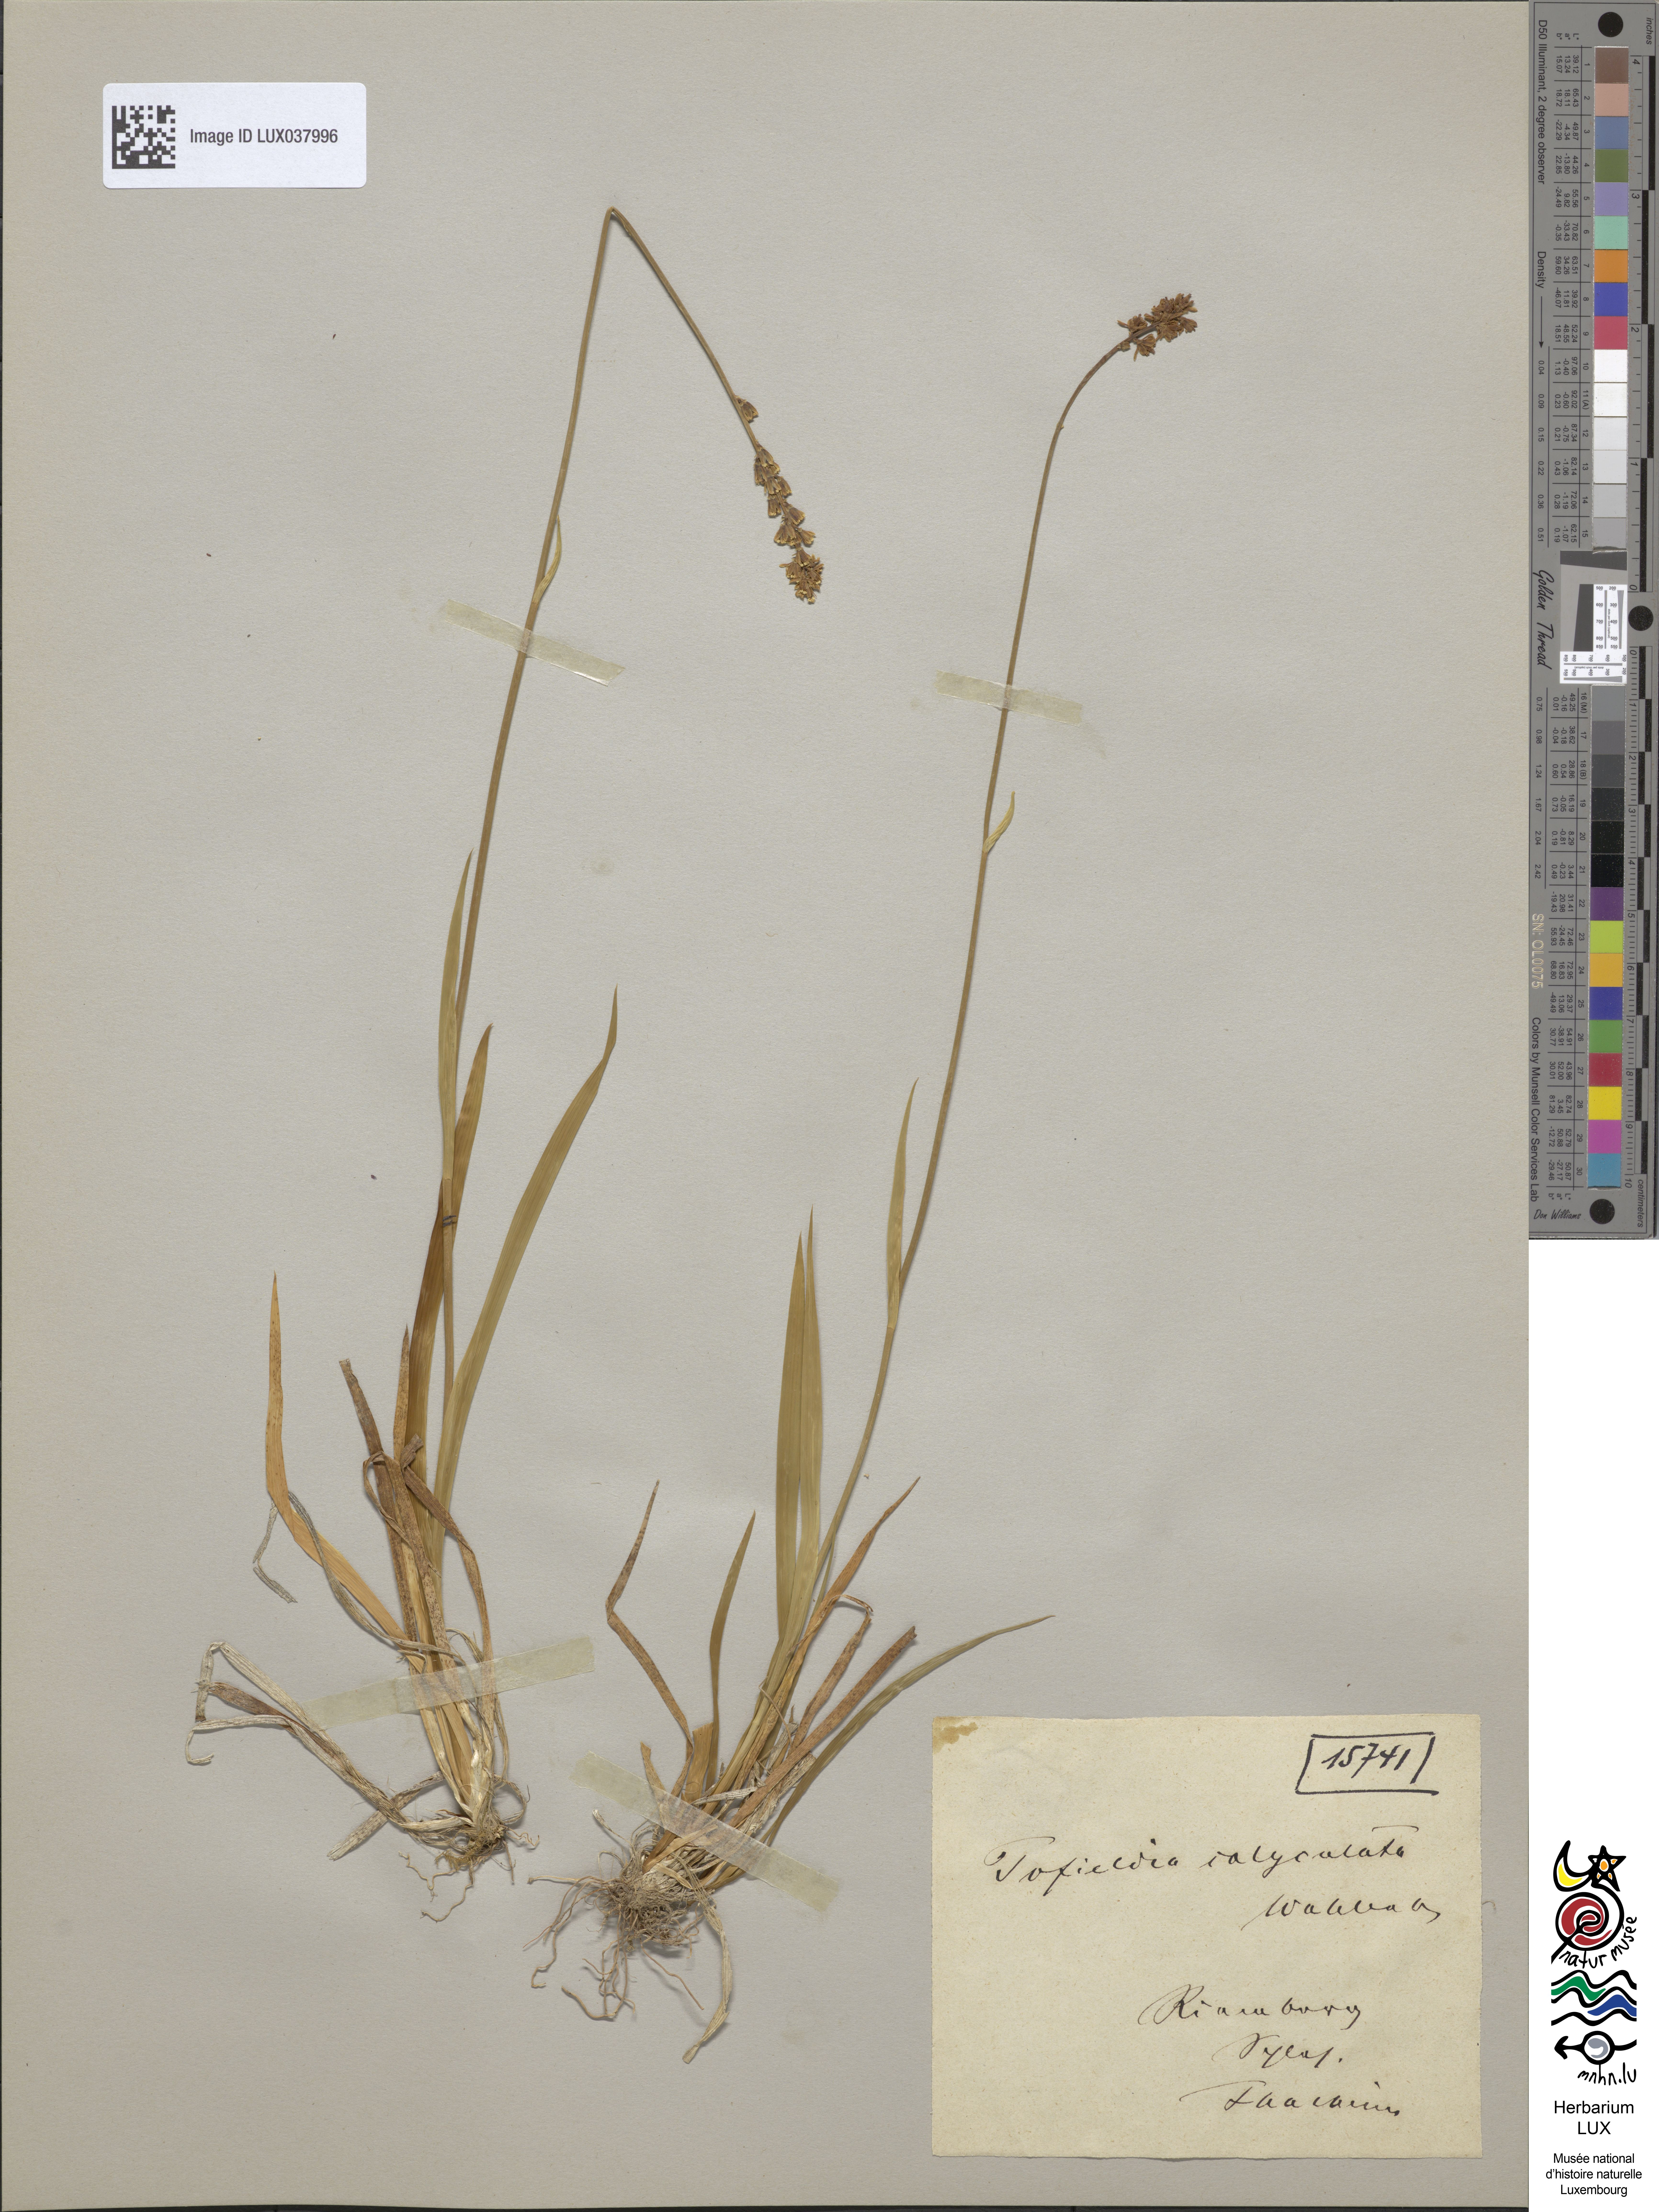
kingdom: Plantae
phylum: Tracheophyta
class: Liliopsida
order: Alismatales
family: Tofieldiaceae
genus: Tofieldia
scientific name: Tofieldia calyculata
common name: German-asphodel
